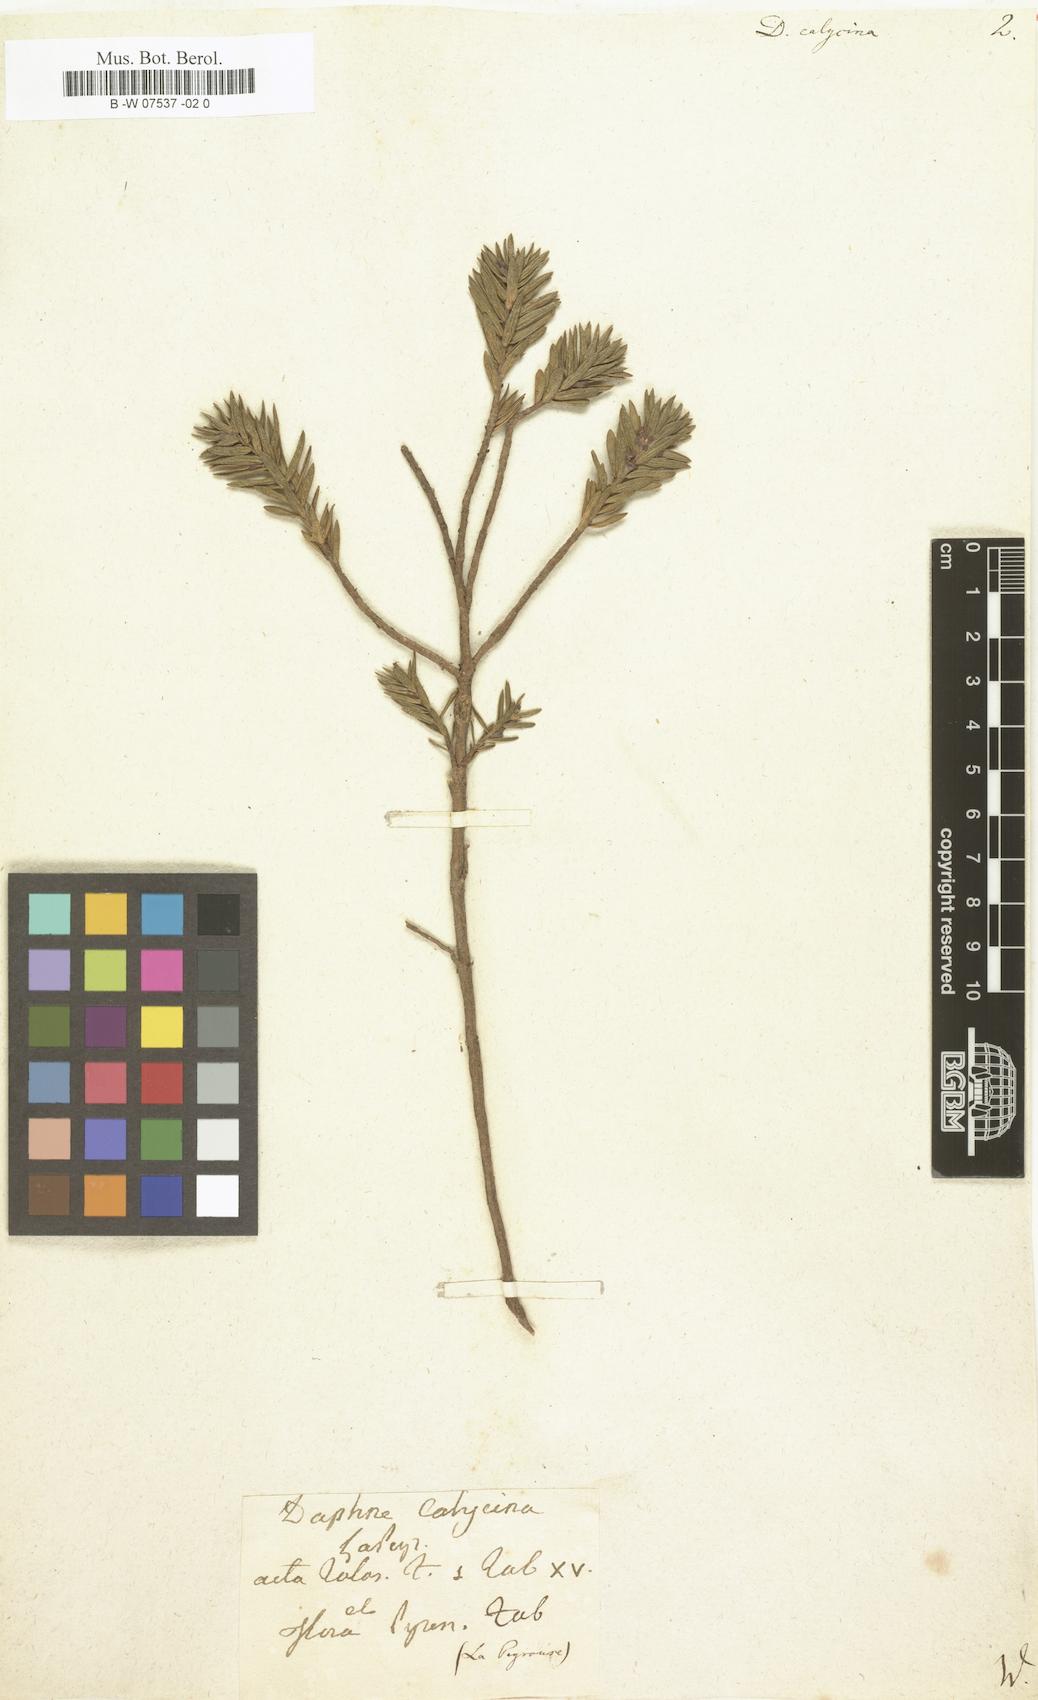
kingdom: Plantae
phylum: Tracheophyta
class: Magnoliopsida
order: Malvales
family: Thymelaeaceae
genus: Thymelaea
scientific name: Thymelaea
